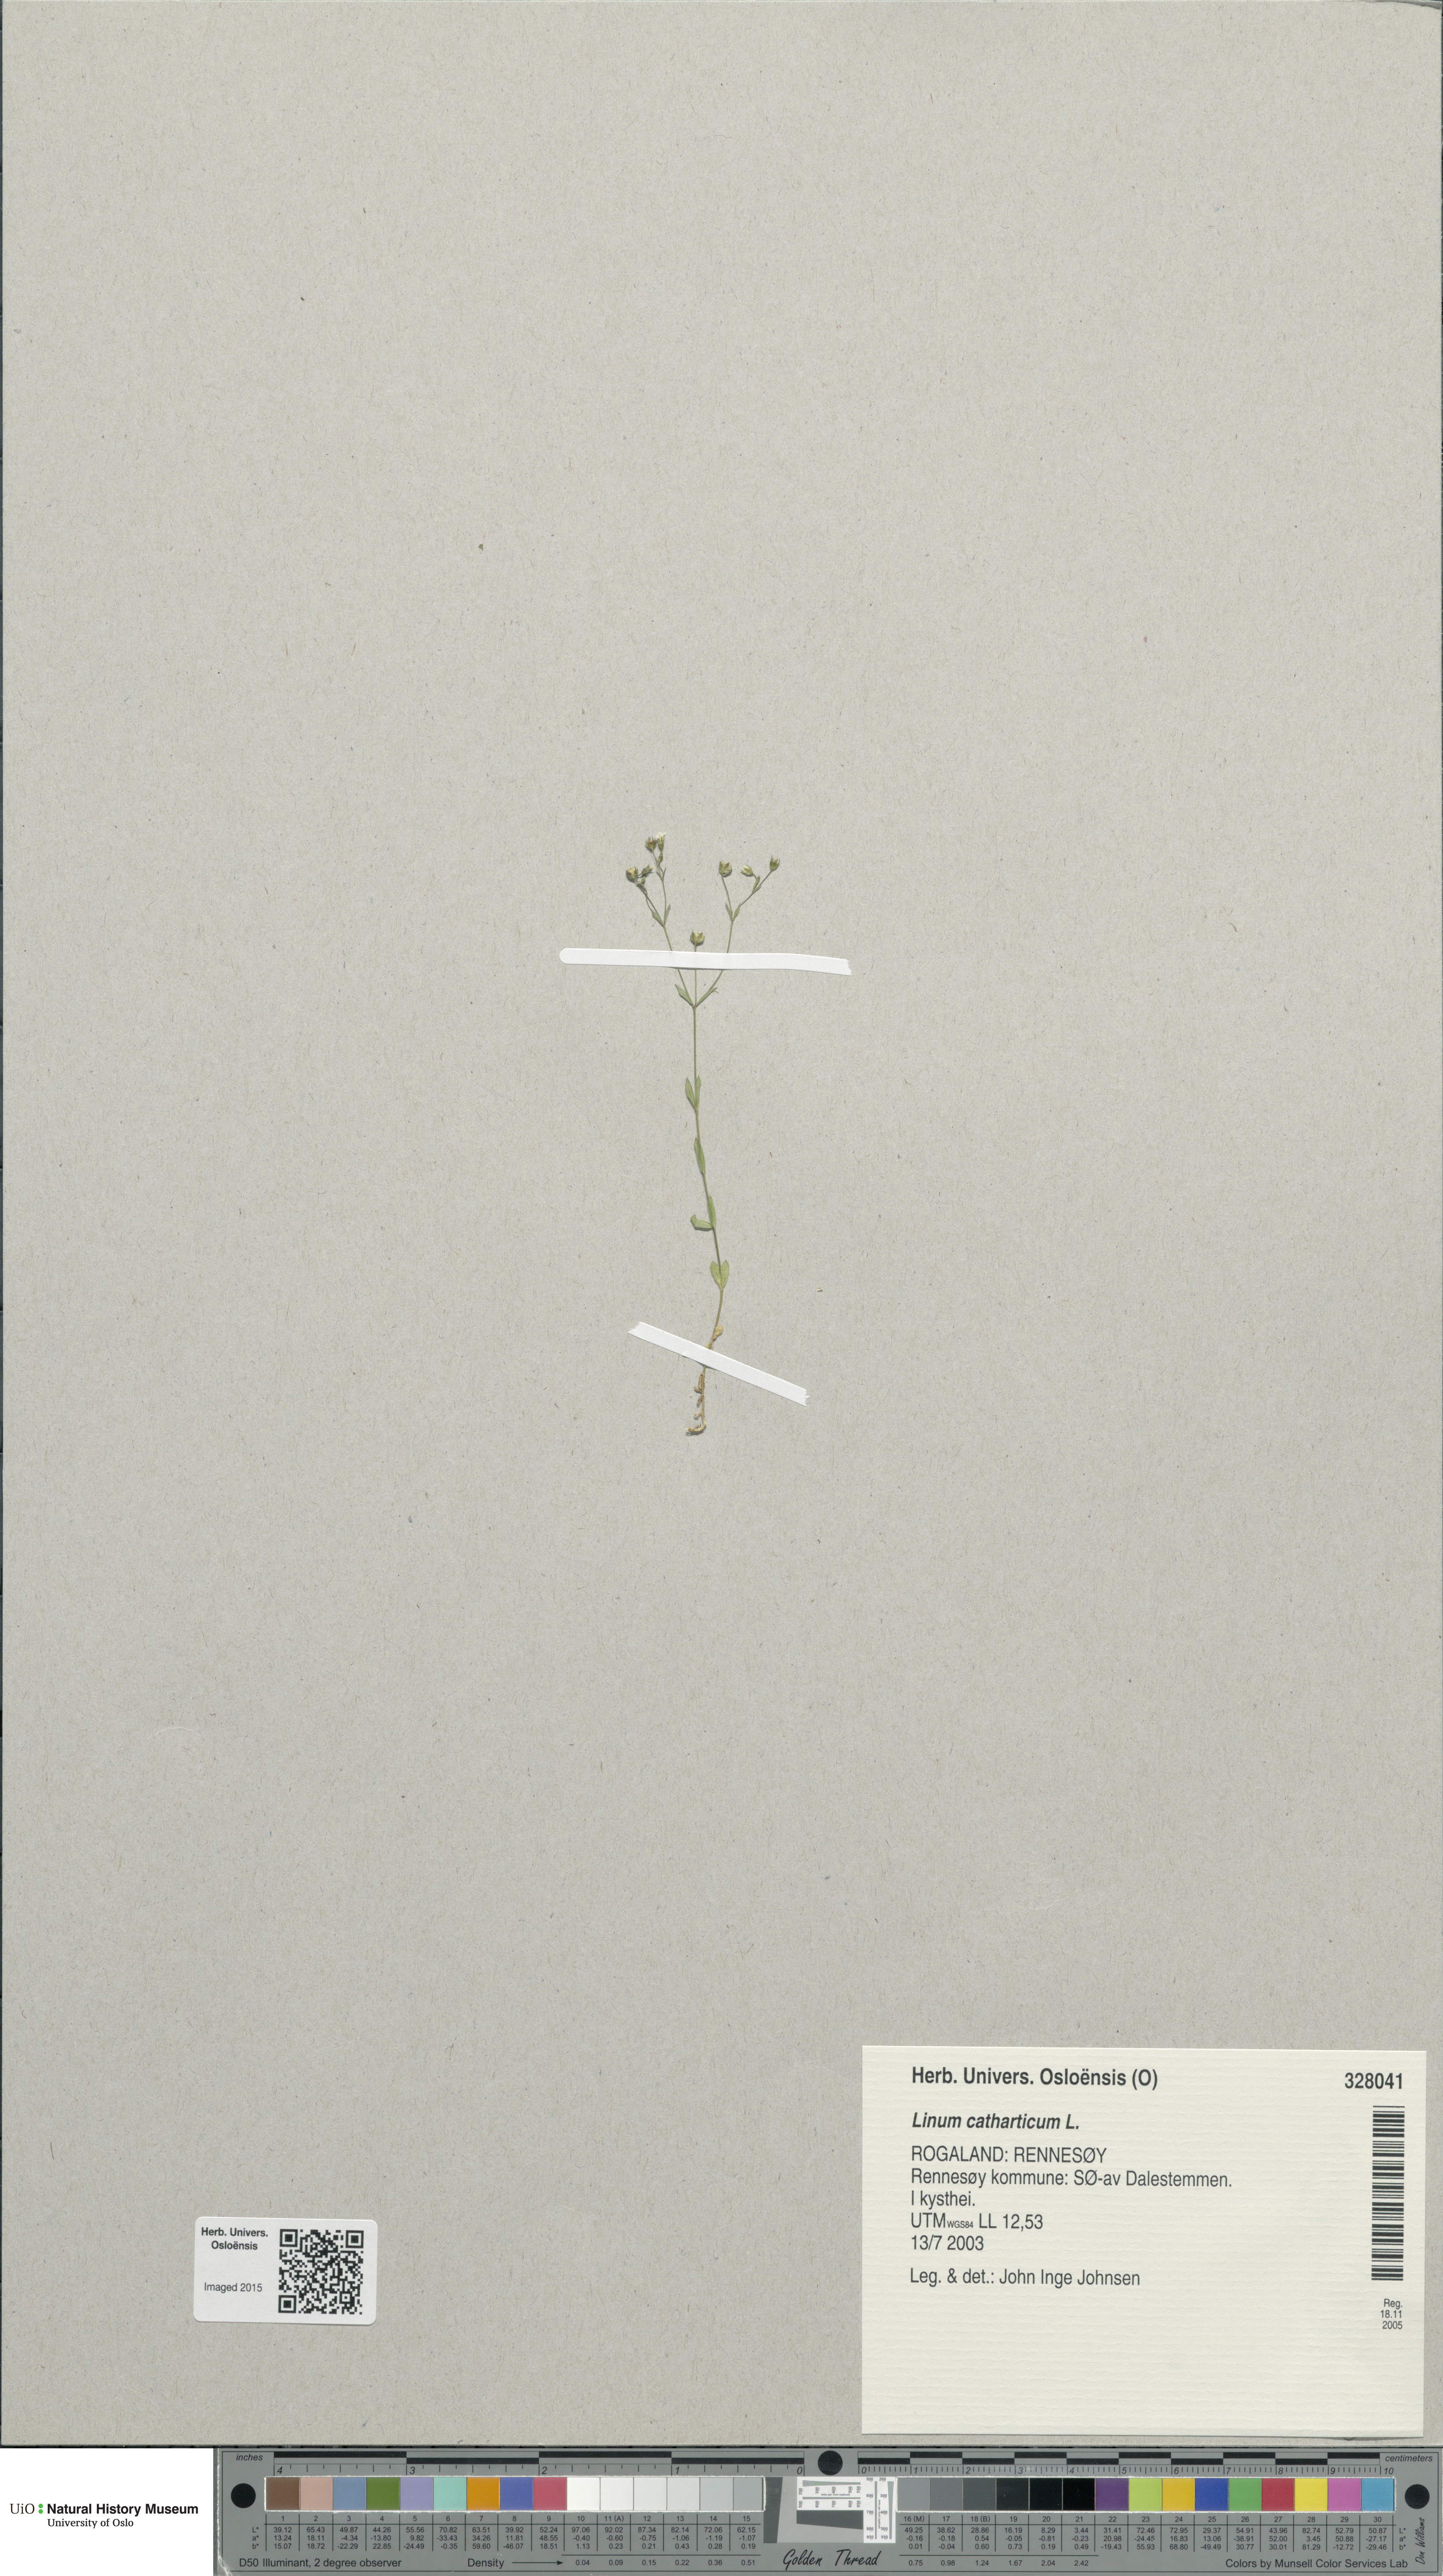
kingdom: Plantae
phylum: Tracheophyta
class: Magnoliopsida
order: Malpighiales
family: Linaceae
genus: Linum
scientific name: Linum catharticum
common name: Fairy flax
